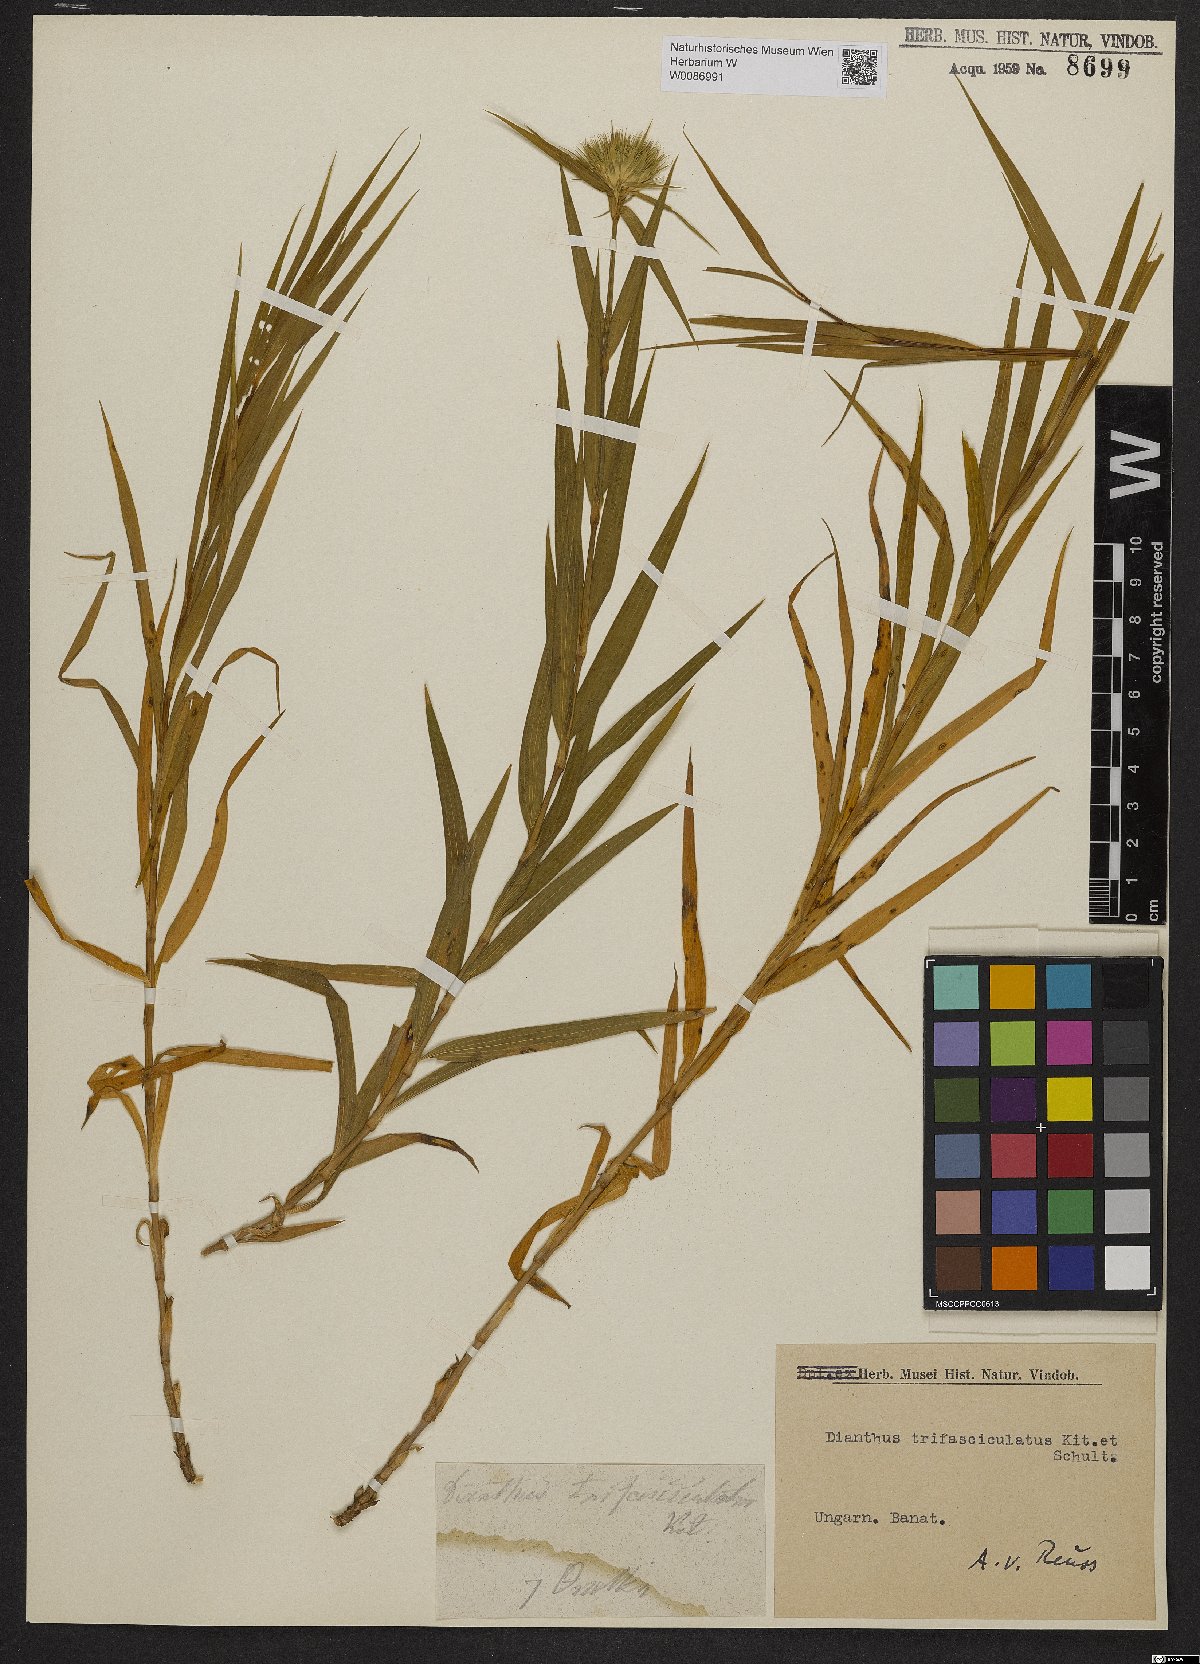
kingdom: Plantae
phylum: Tracheophyta
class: Magnoliopsida
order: Caryophyllales
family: Caryophyllaceae
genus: Dianthus
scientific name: Dianthus trifasciculatus
